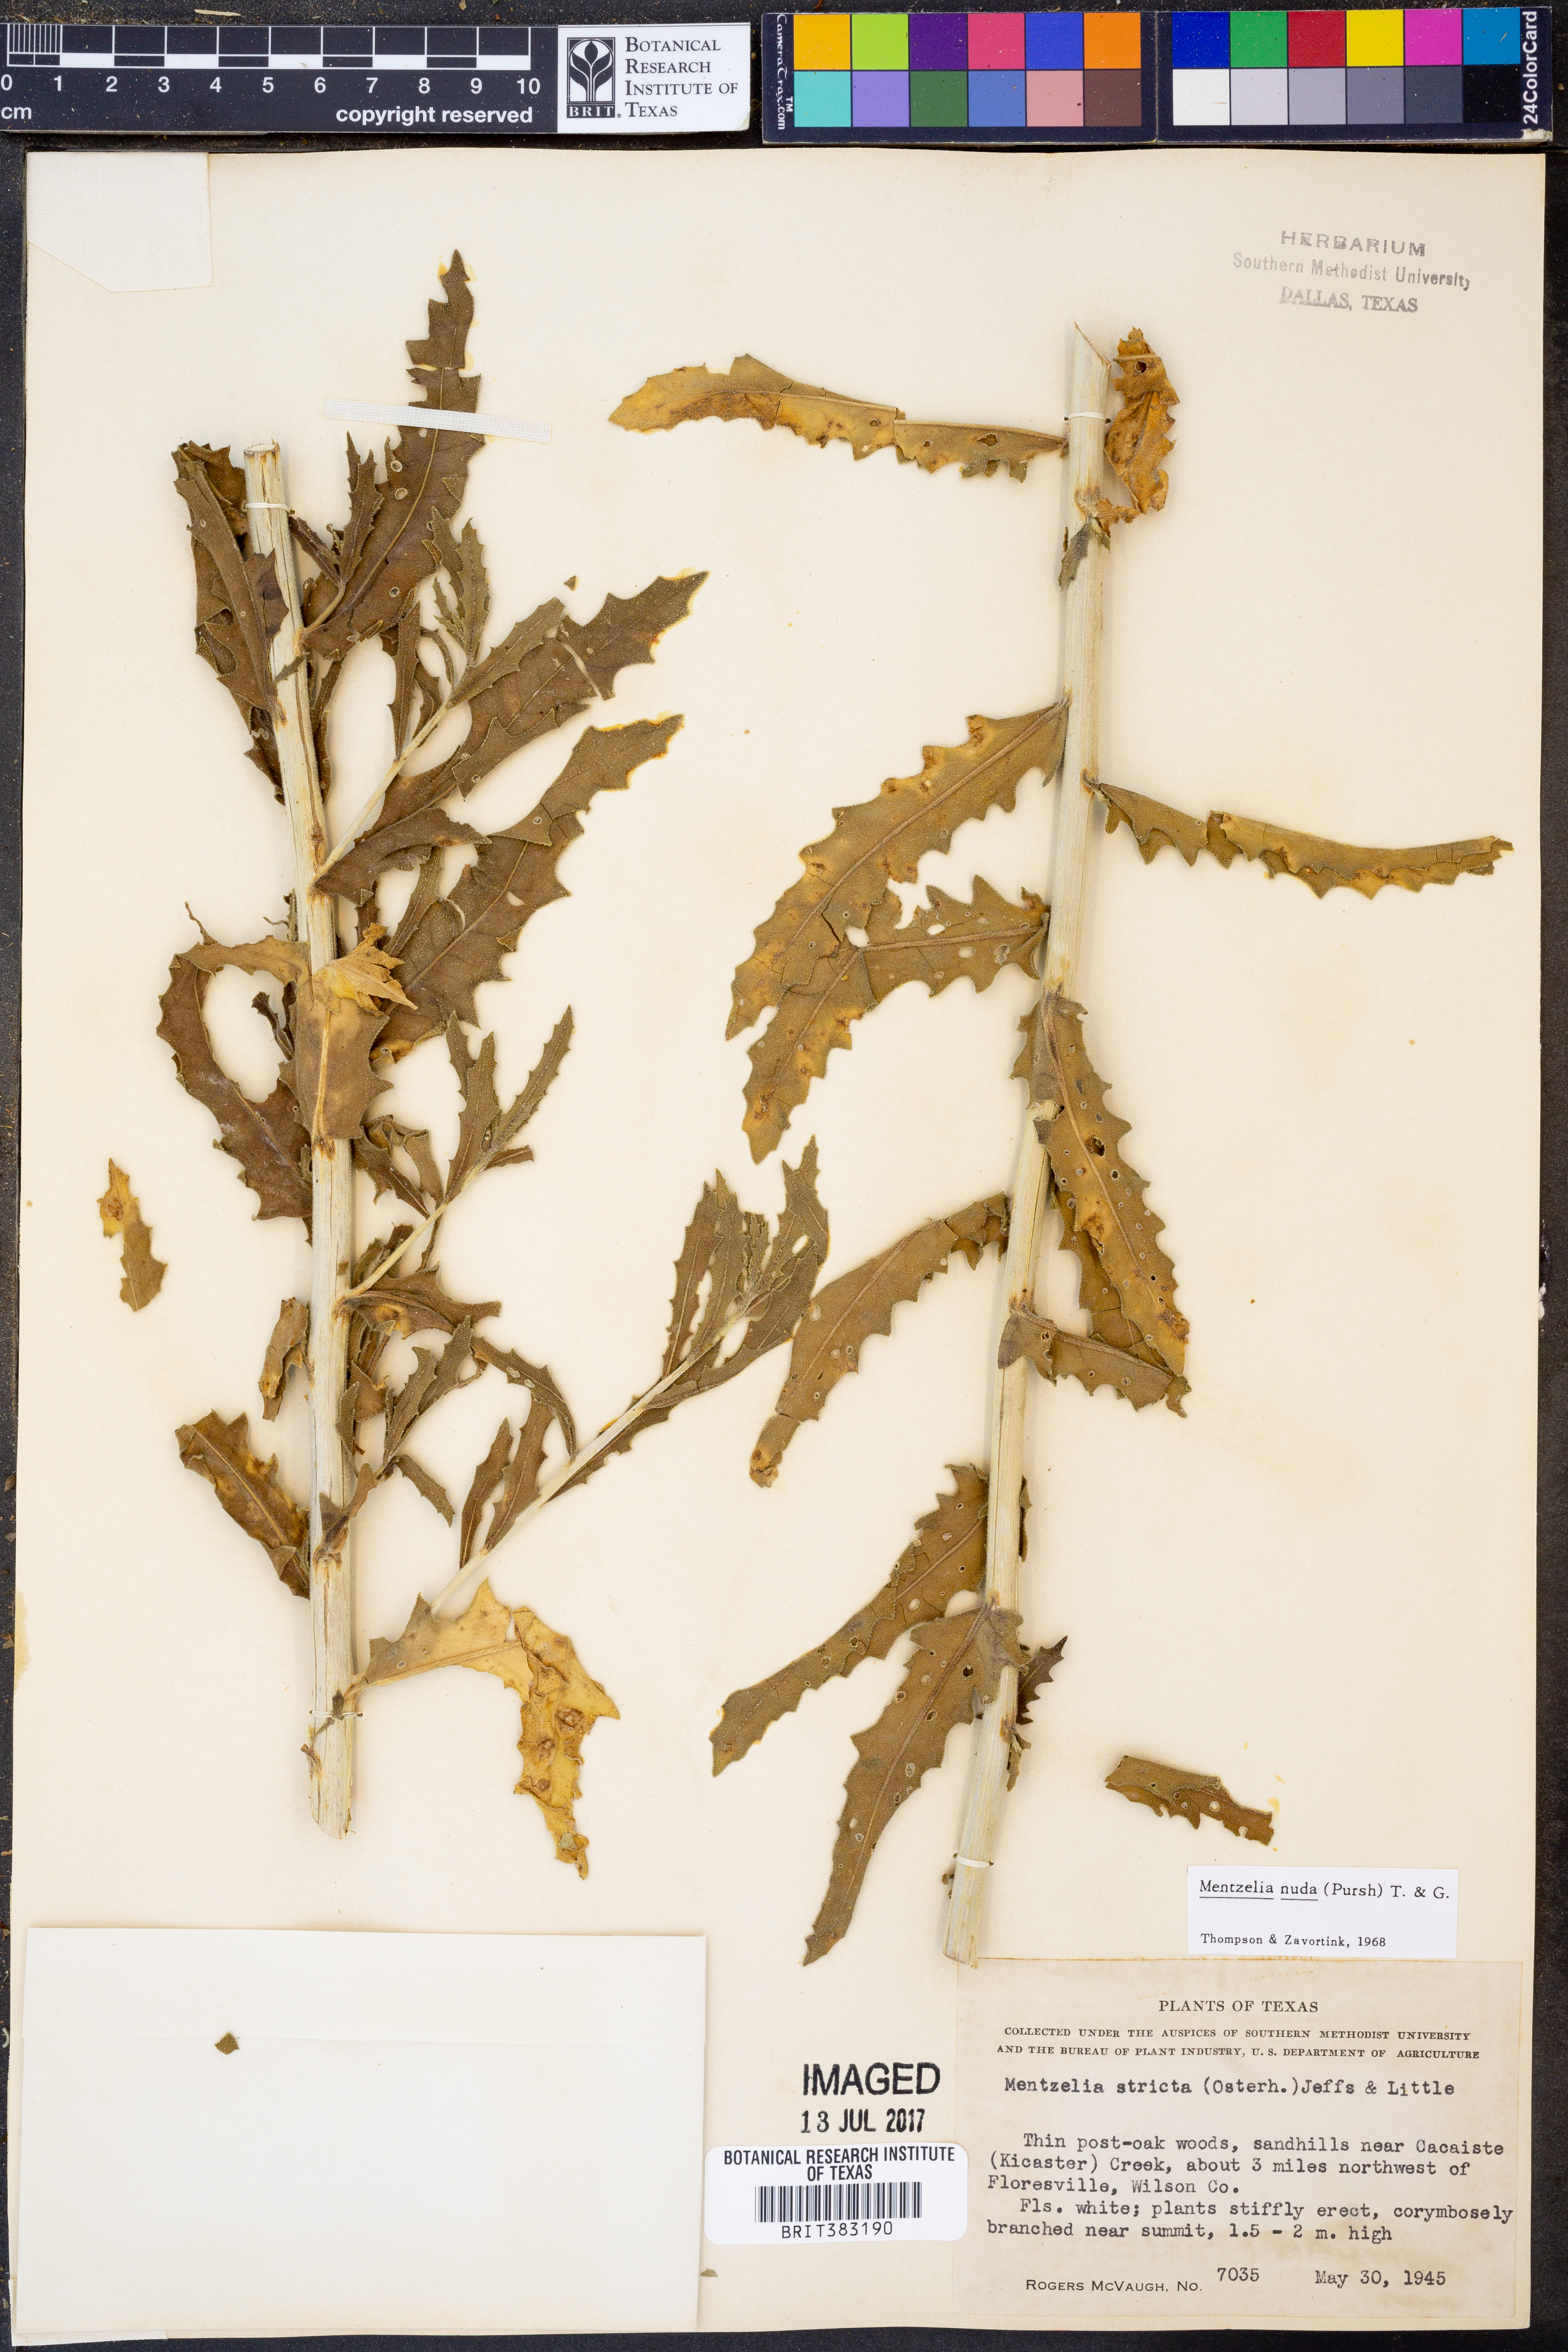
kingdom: Plantae
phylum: Tracheophyta
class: Magnoliopsida
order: Cornales
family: Loasaceae
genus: Mentzelia
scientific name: Mentzelia nuda
